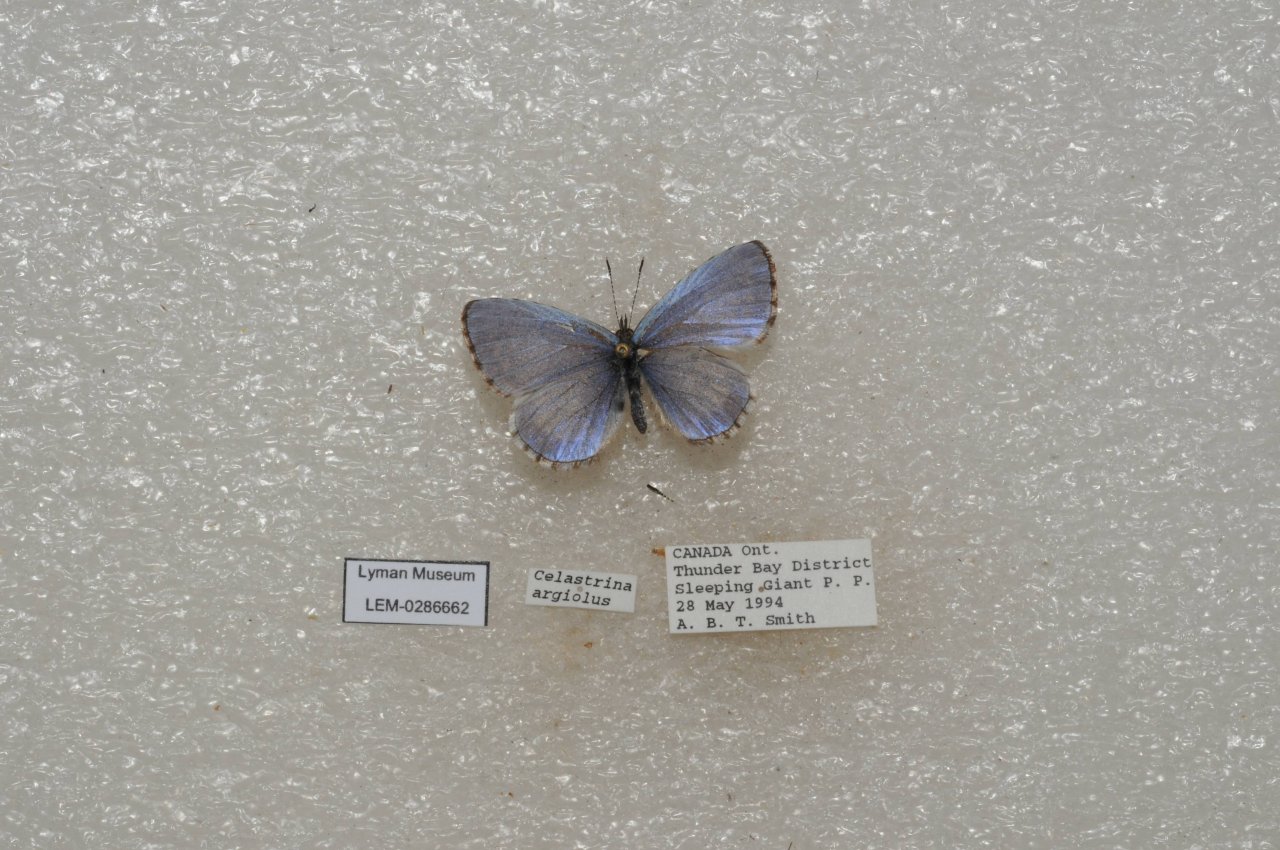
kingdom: Animalia
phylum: Arthropoda
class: Insecta
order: Lepidoptera
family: Lycaenidae
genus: Celastrina
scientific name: Celastrina lucia
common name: Northern Spring Azure
